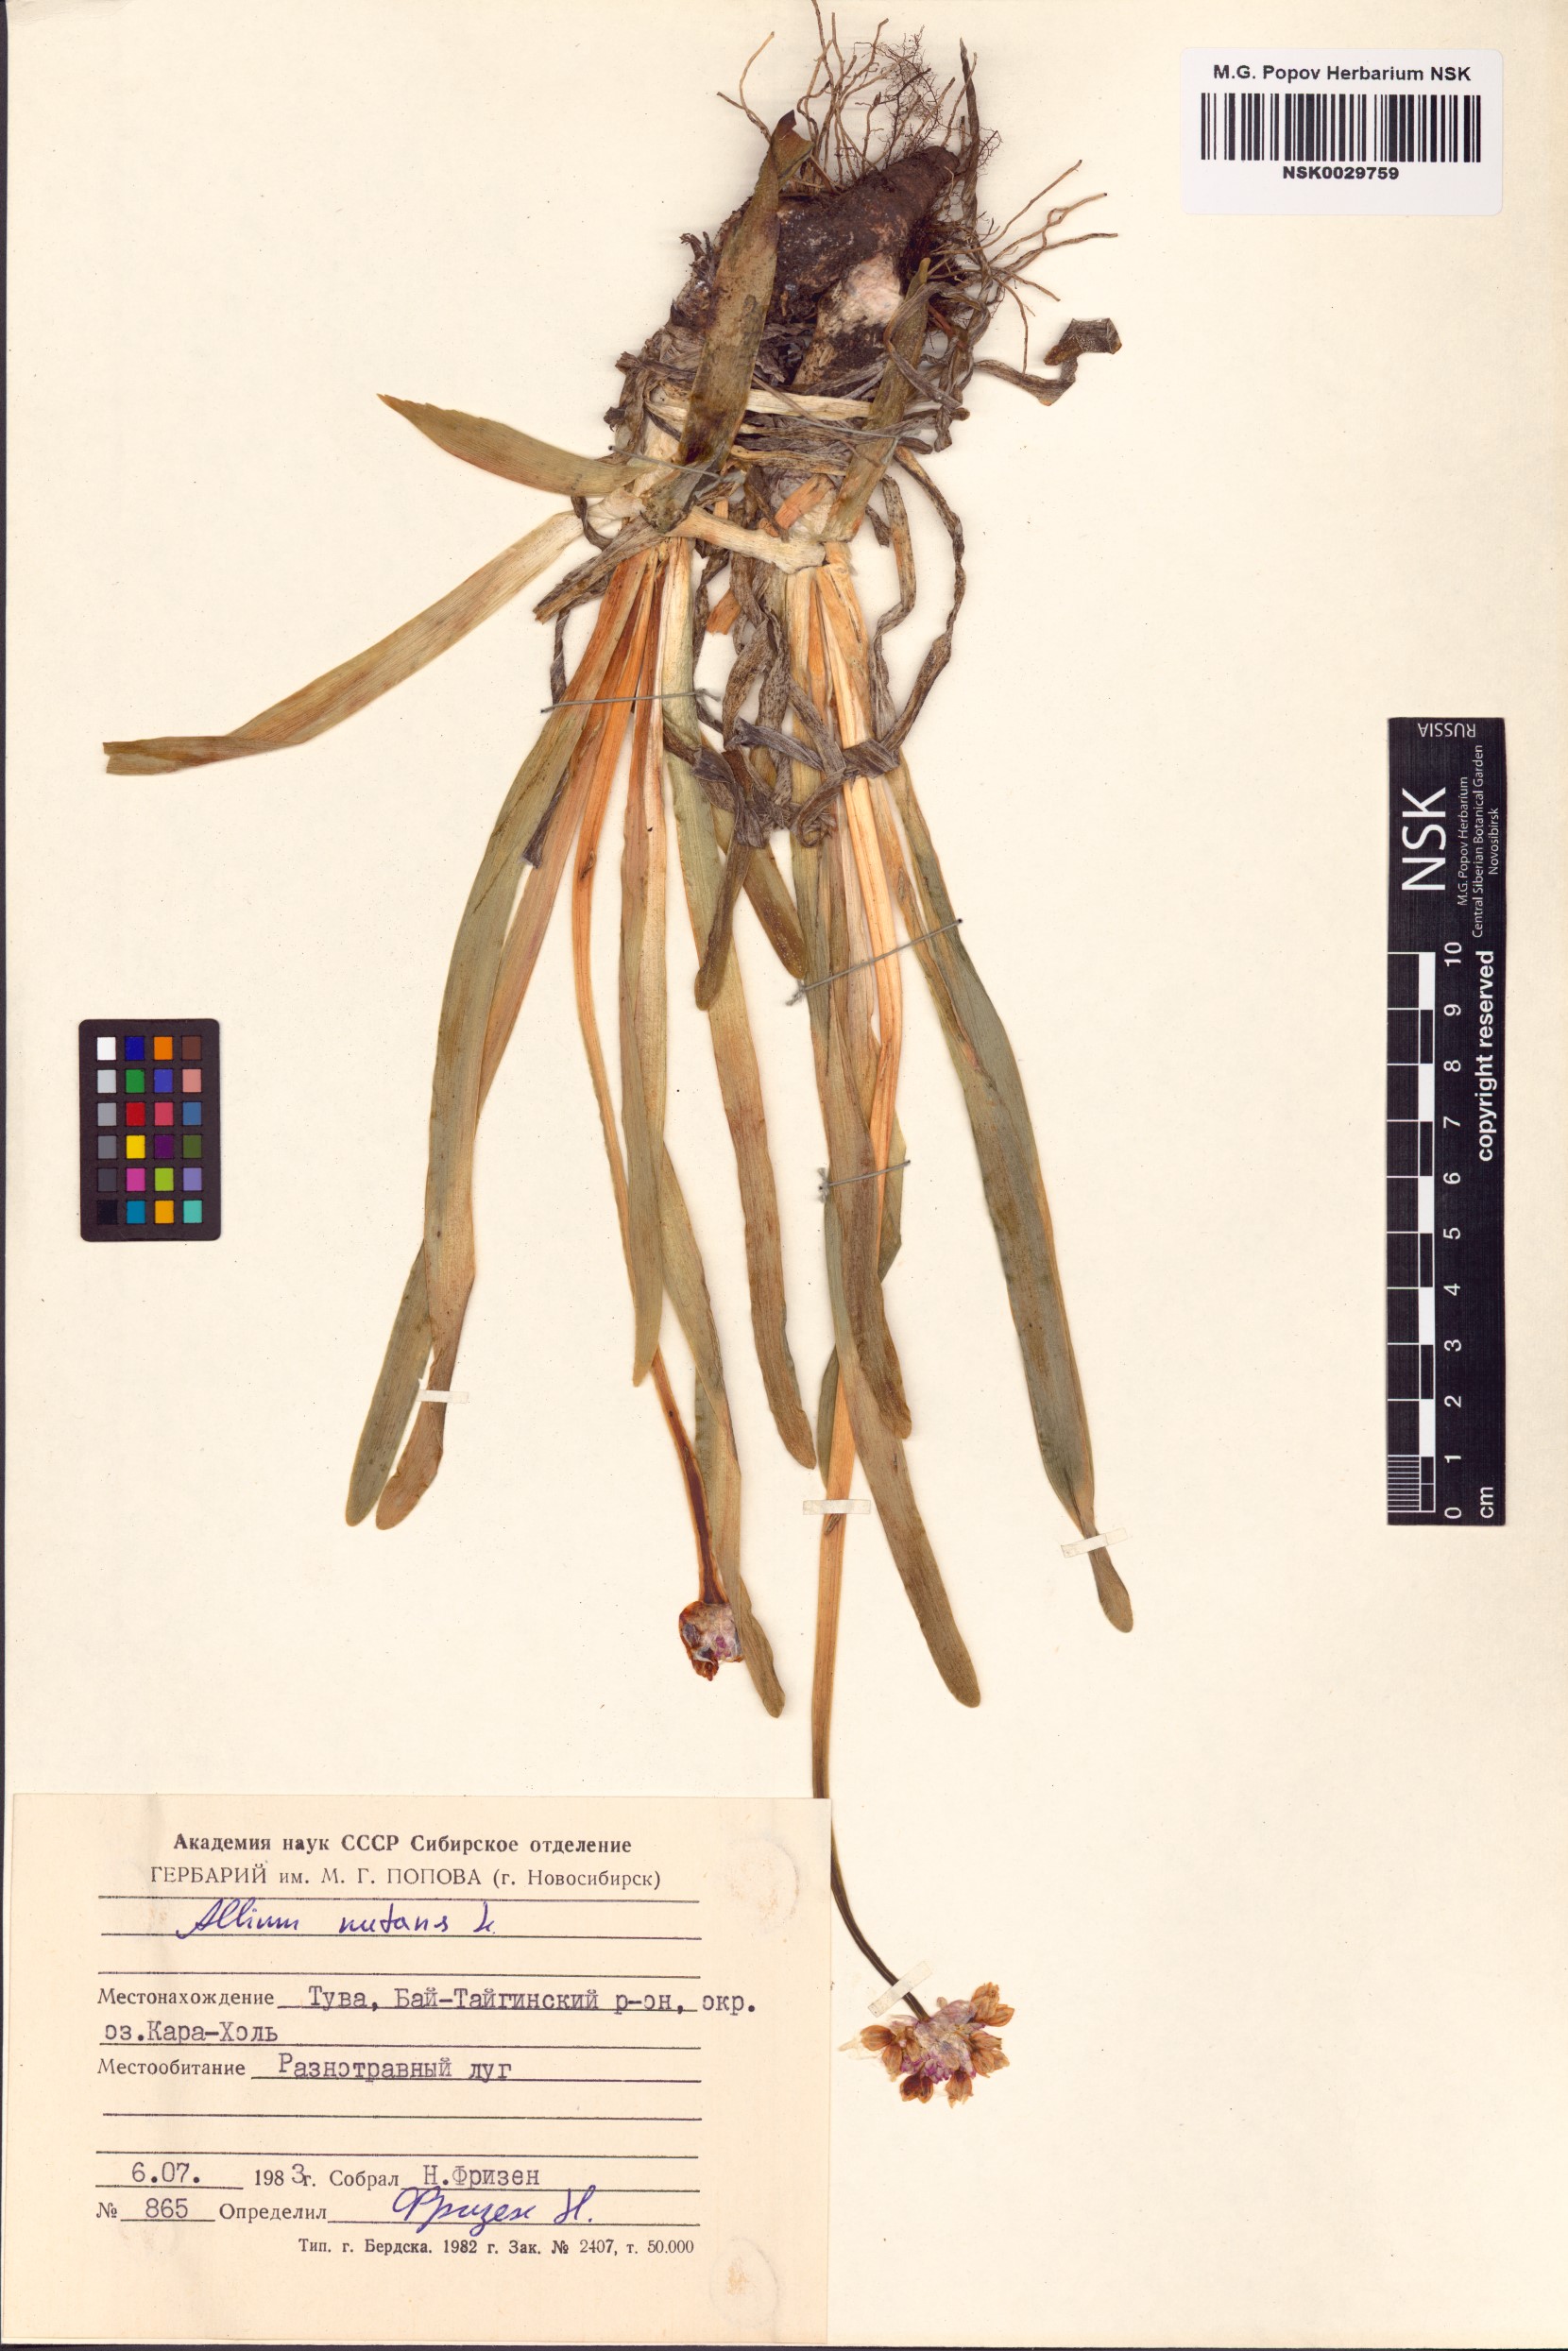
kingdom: Plantae
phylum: Tracheophyta
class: Liliopsida
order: Asparagales
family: Amaryllidaceae
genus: Allium
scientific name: Allium nutans
